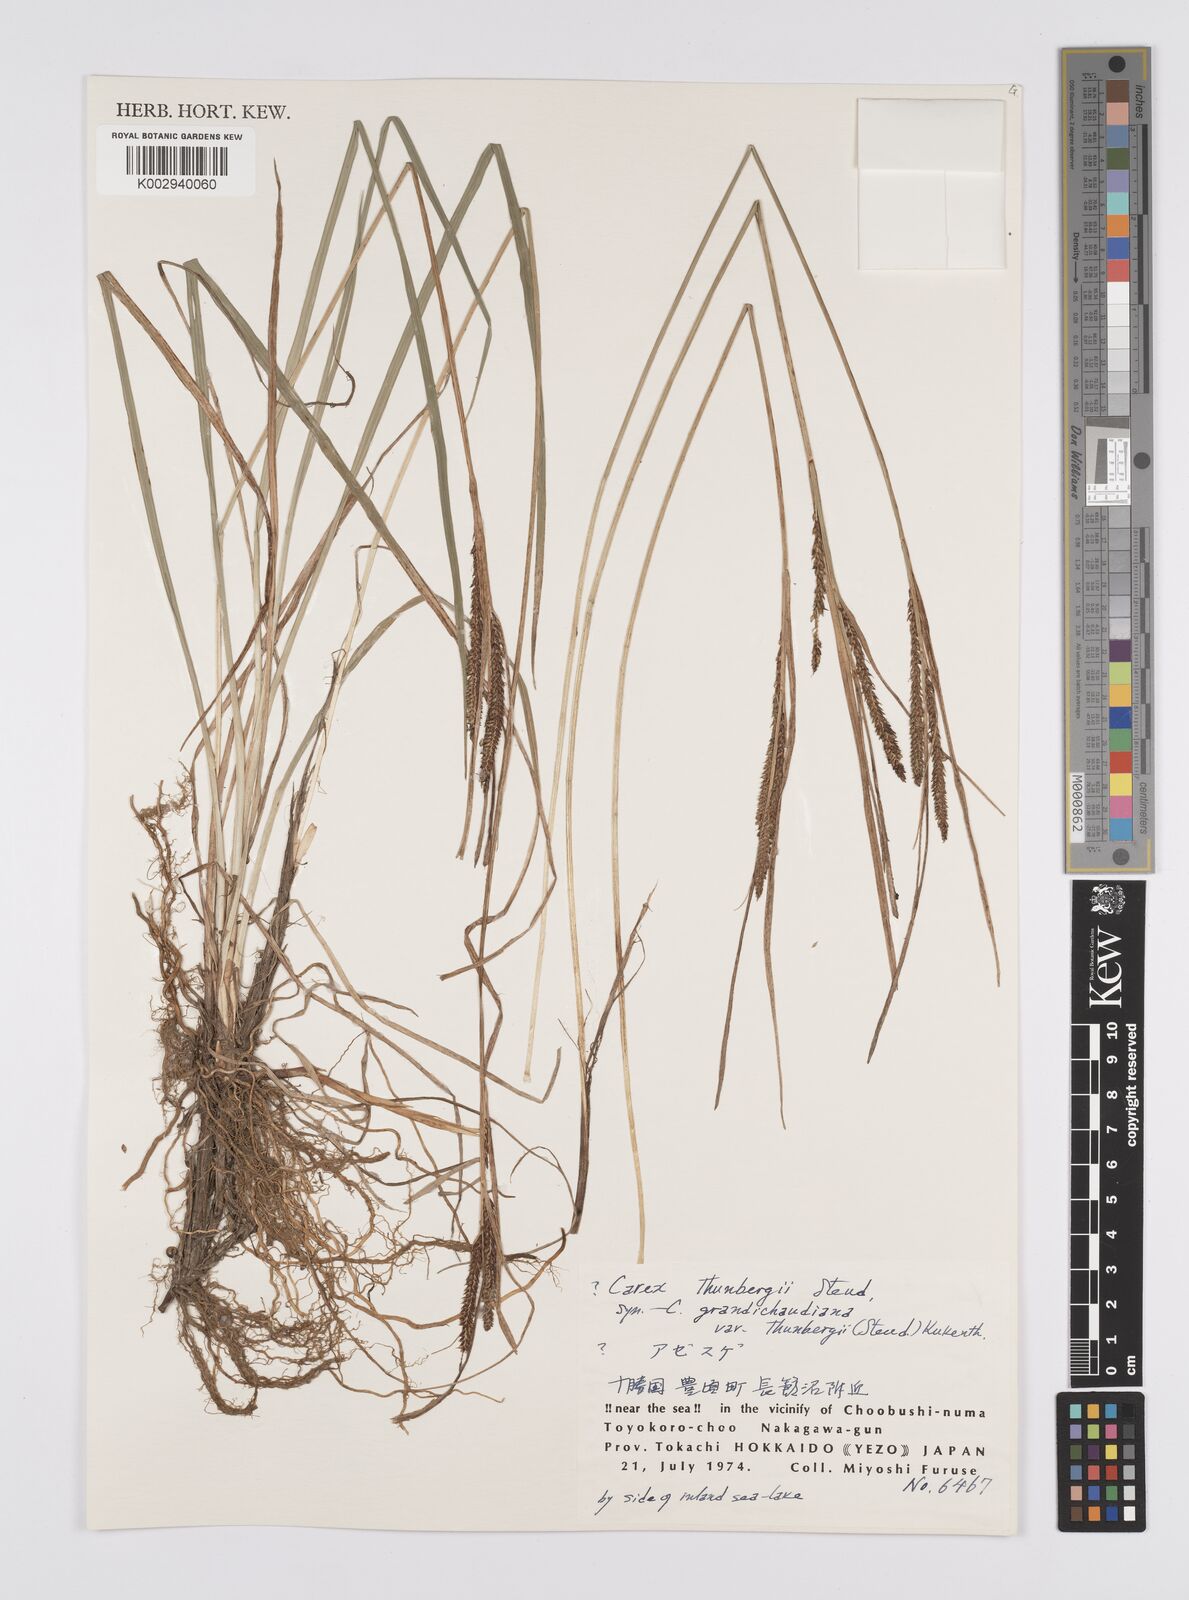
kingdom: Plantae
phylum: Tracheophyta
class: Liliopsida
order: Poales
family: Cyperaceae
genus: Carex
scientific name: Carex thunbergii
